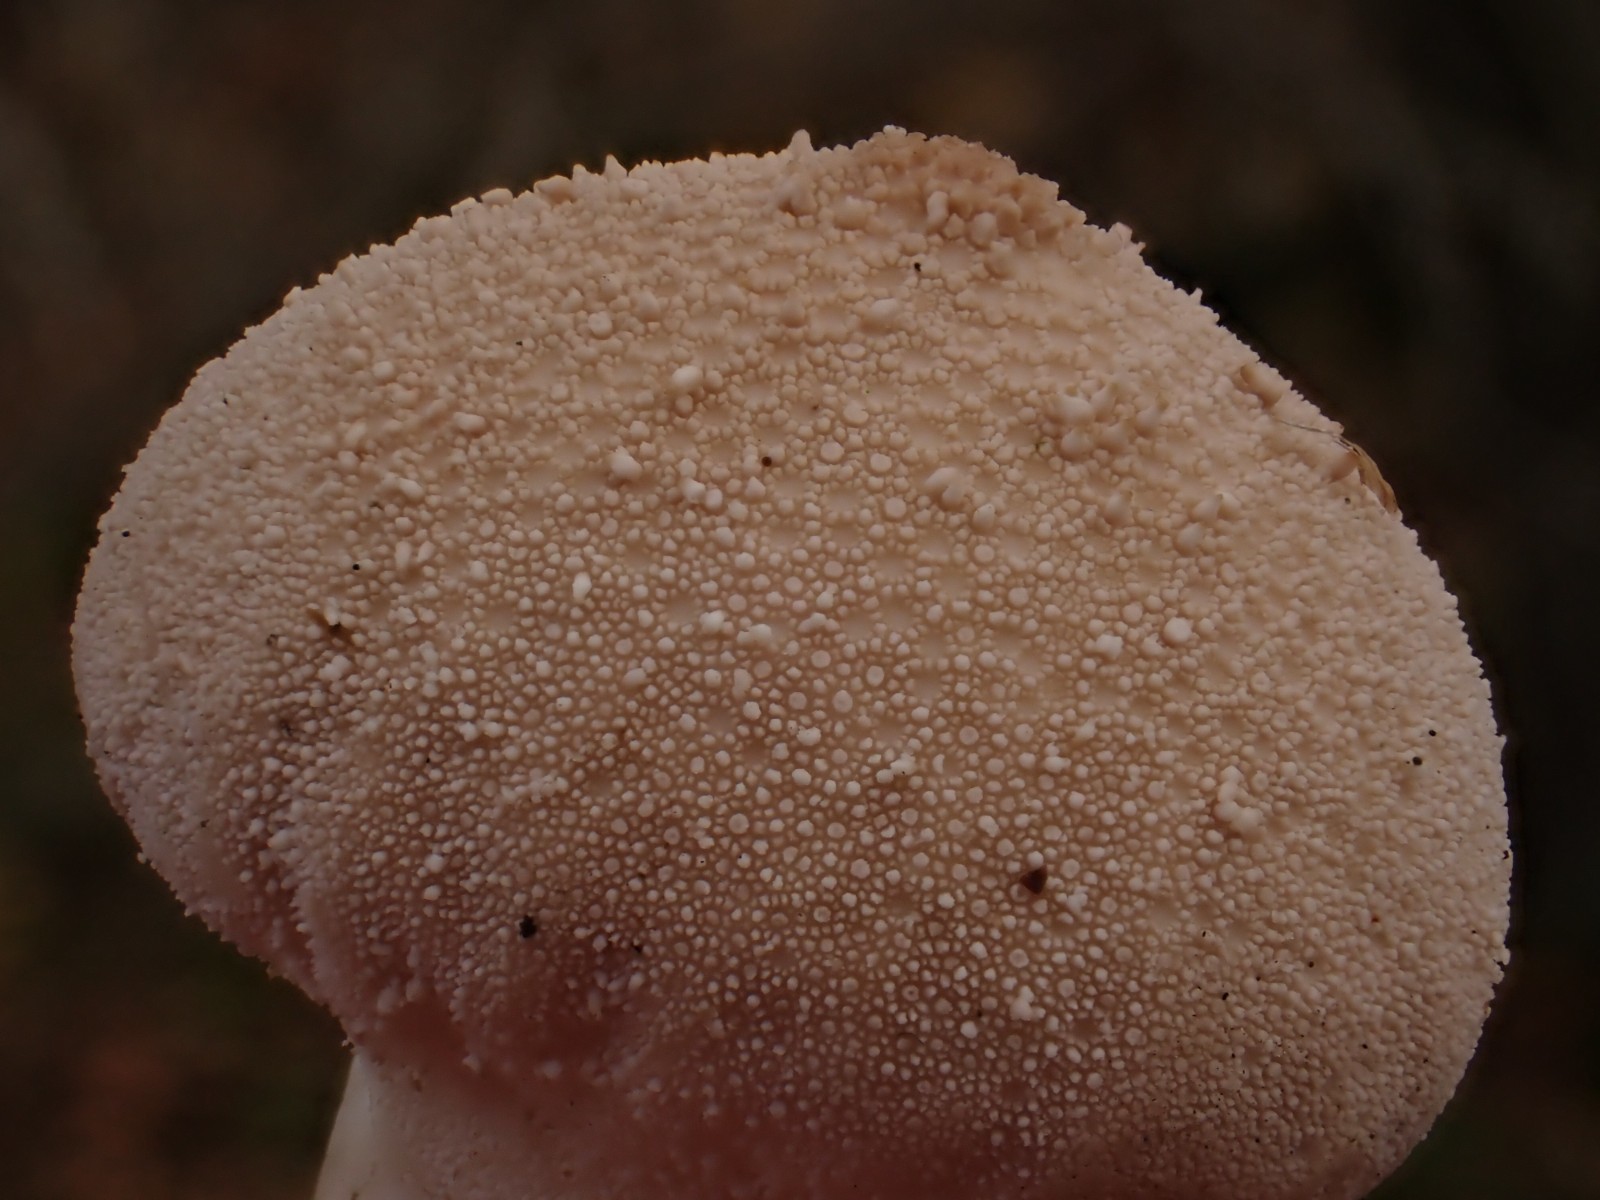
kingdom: Fungi
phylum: Basidiomycota
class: Agaricomycetes
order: Agaricales
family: Lycoperdaceae
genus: Lycoperdon
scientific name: Lycoperdon perlatum
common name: krystal-støvbold
